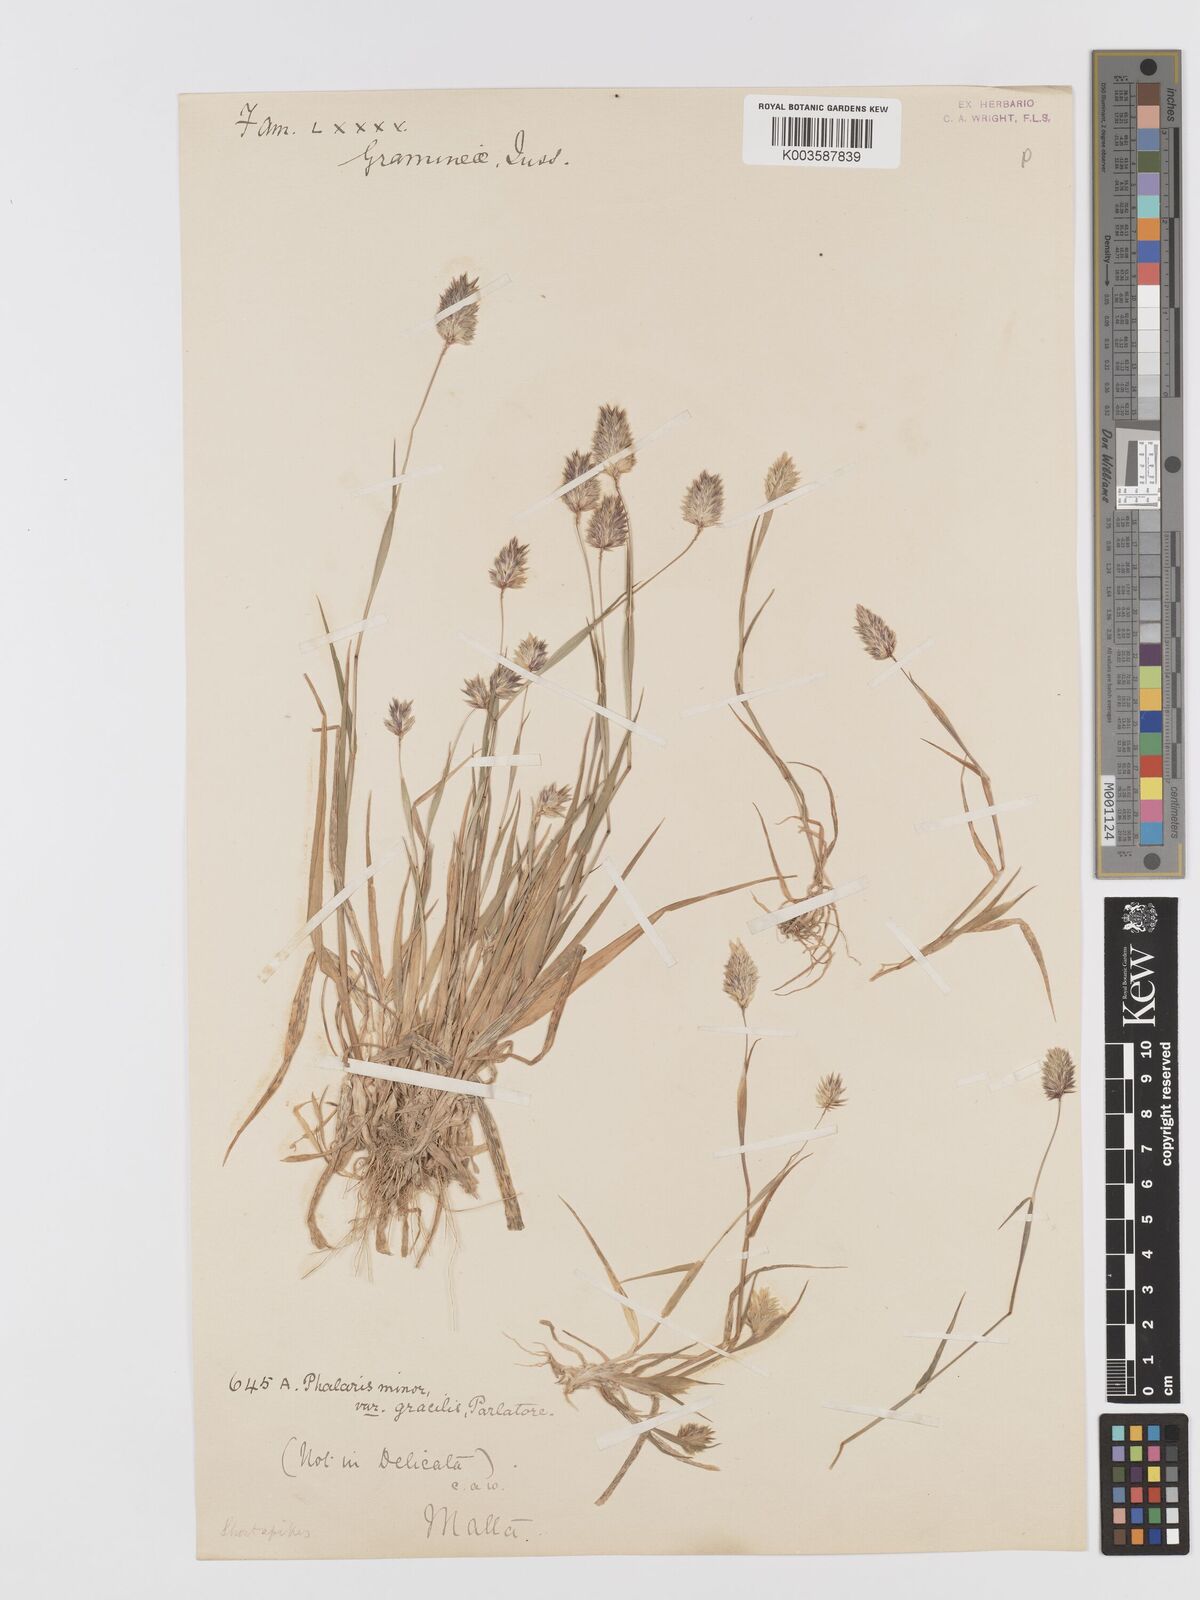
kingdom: Plantae
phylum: Tracheophyta
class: Liliopsida
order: Poales
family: Poaceae
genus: Phalaris
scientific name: Phalaris minor
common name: Littleseed canarygrass
